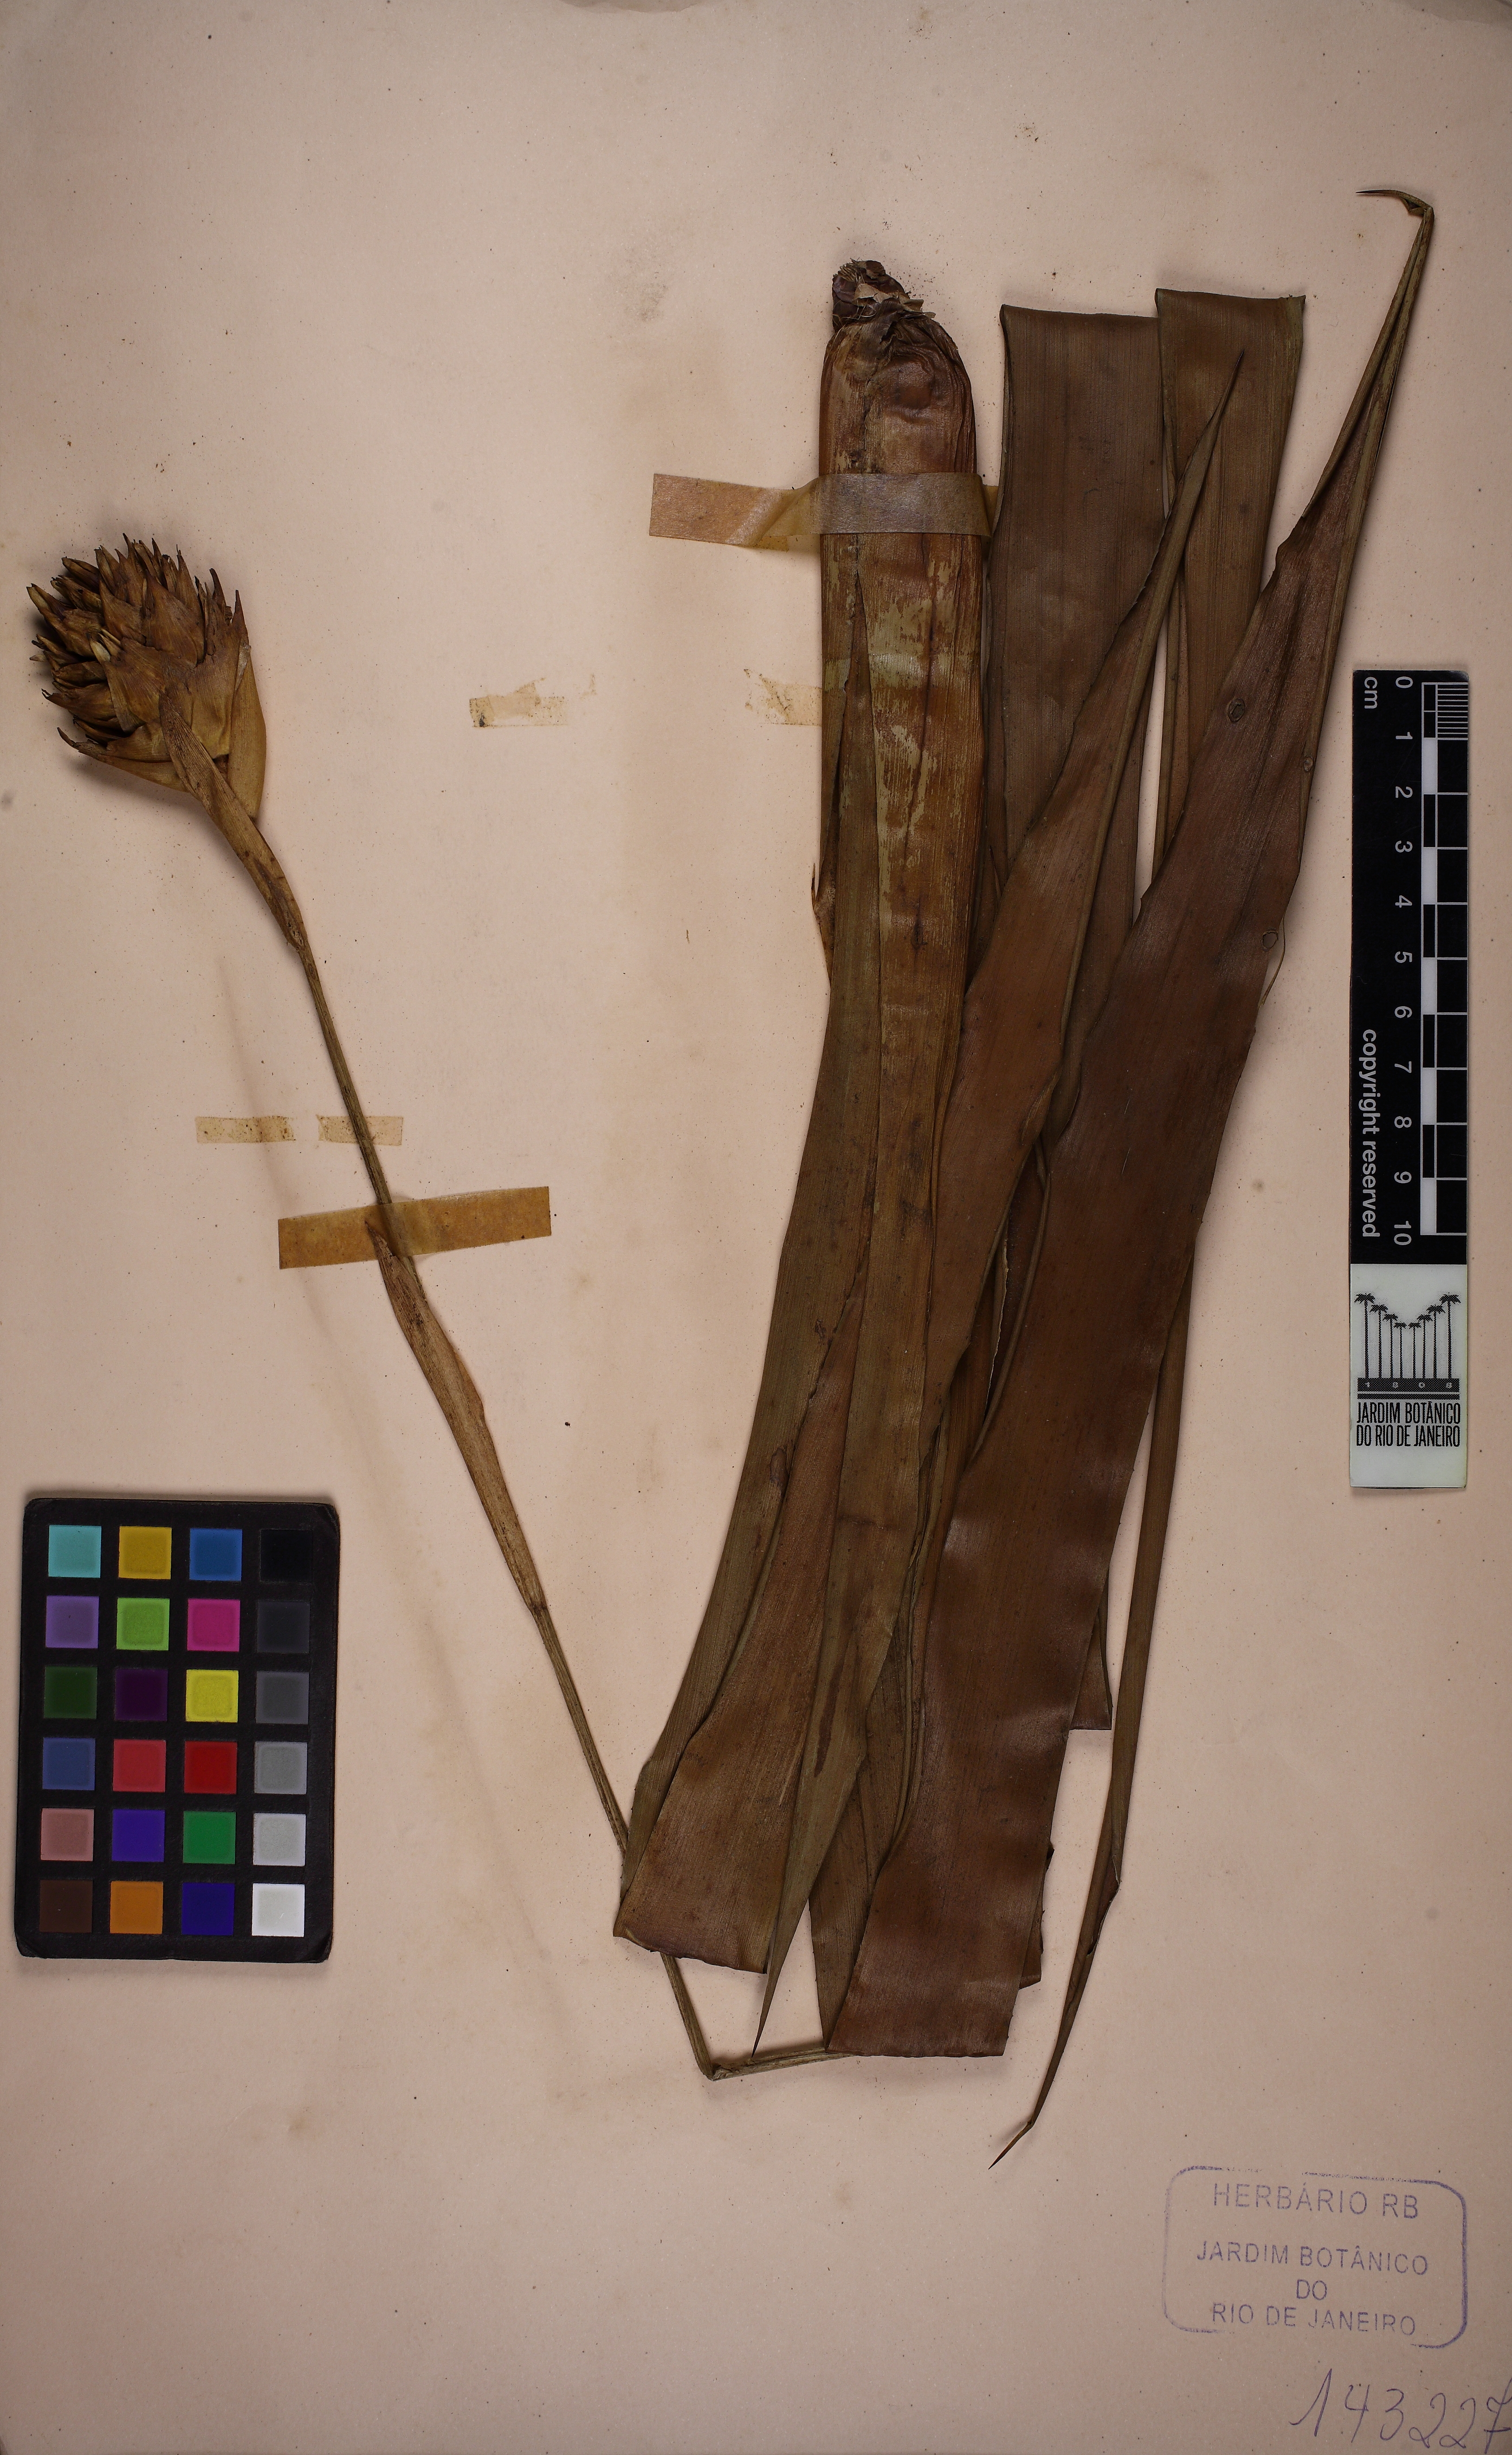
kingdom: Plantae
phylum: Tracheophyta
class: Liliopsida
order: Poales
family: Bromeliaceae
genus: Quesnelia
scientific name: Quesnelia seideliana
